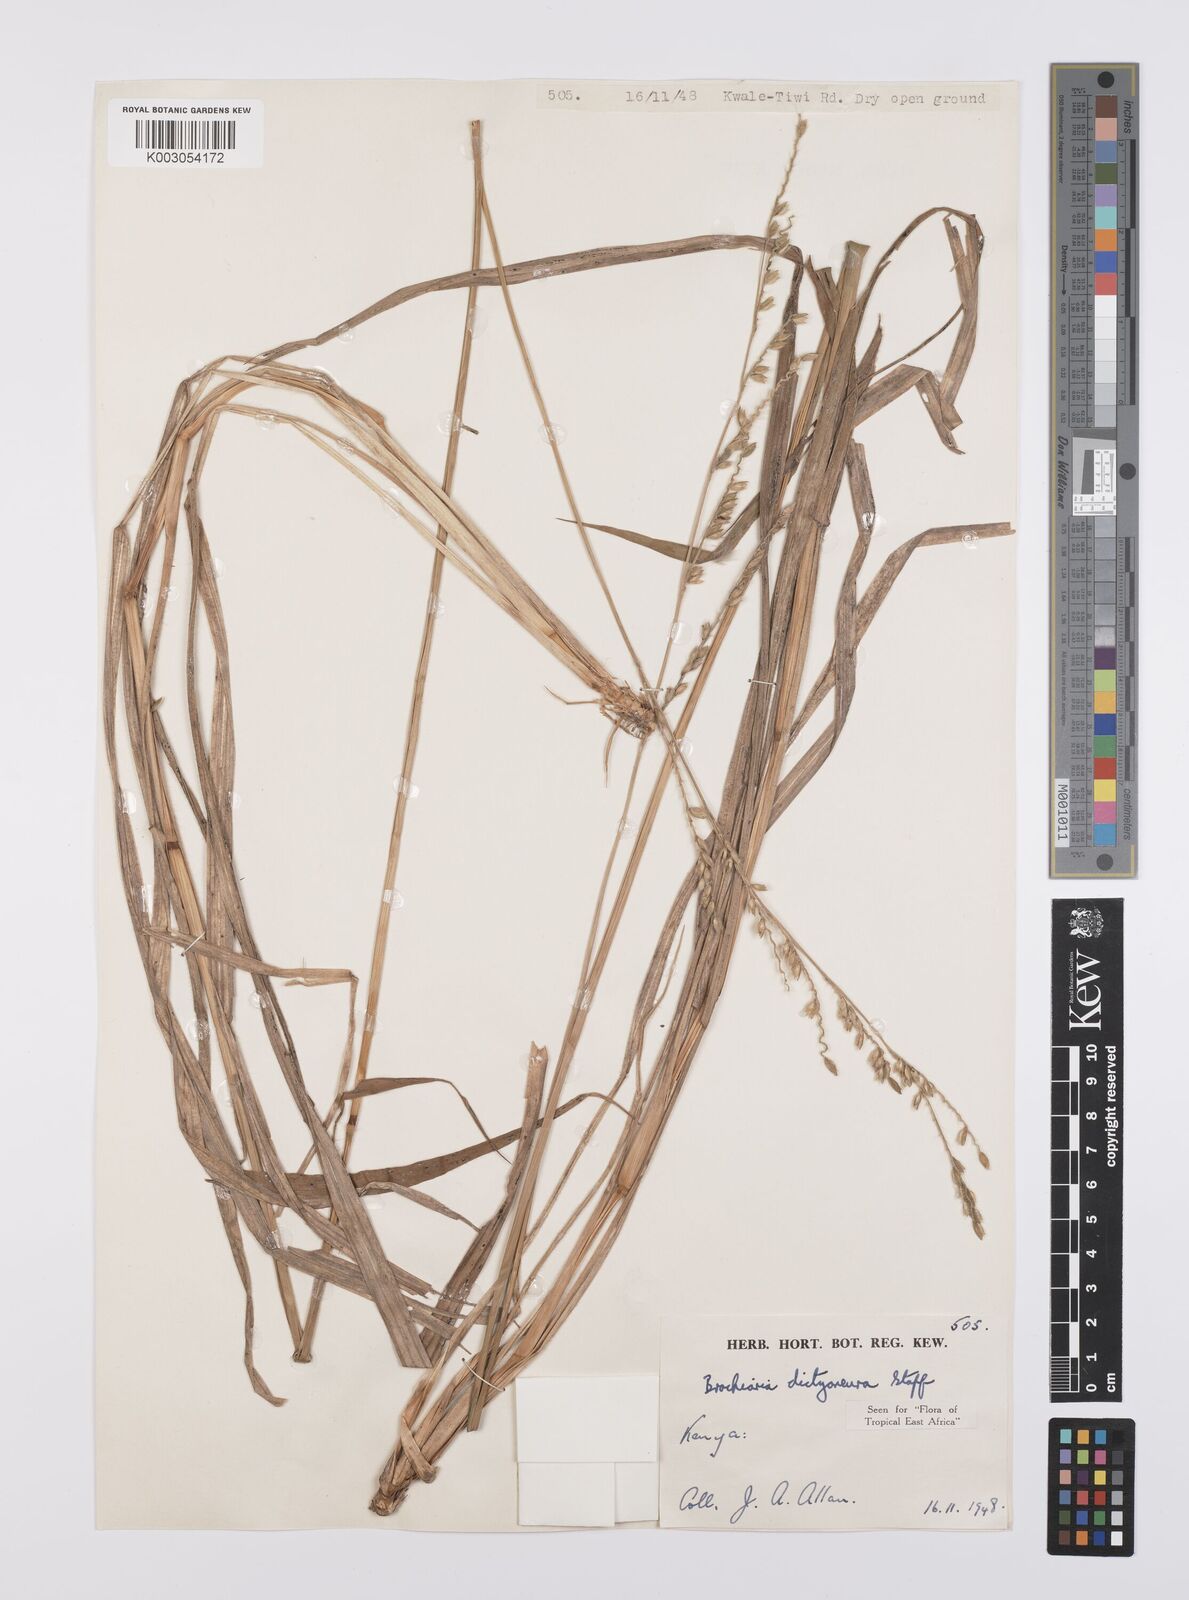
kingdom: Plantae
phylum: Tracheophyta
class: Liliopsida
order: Poales
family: Poaceae
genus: Urochloa
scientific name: Urochloa dictyoneura
